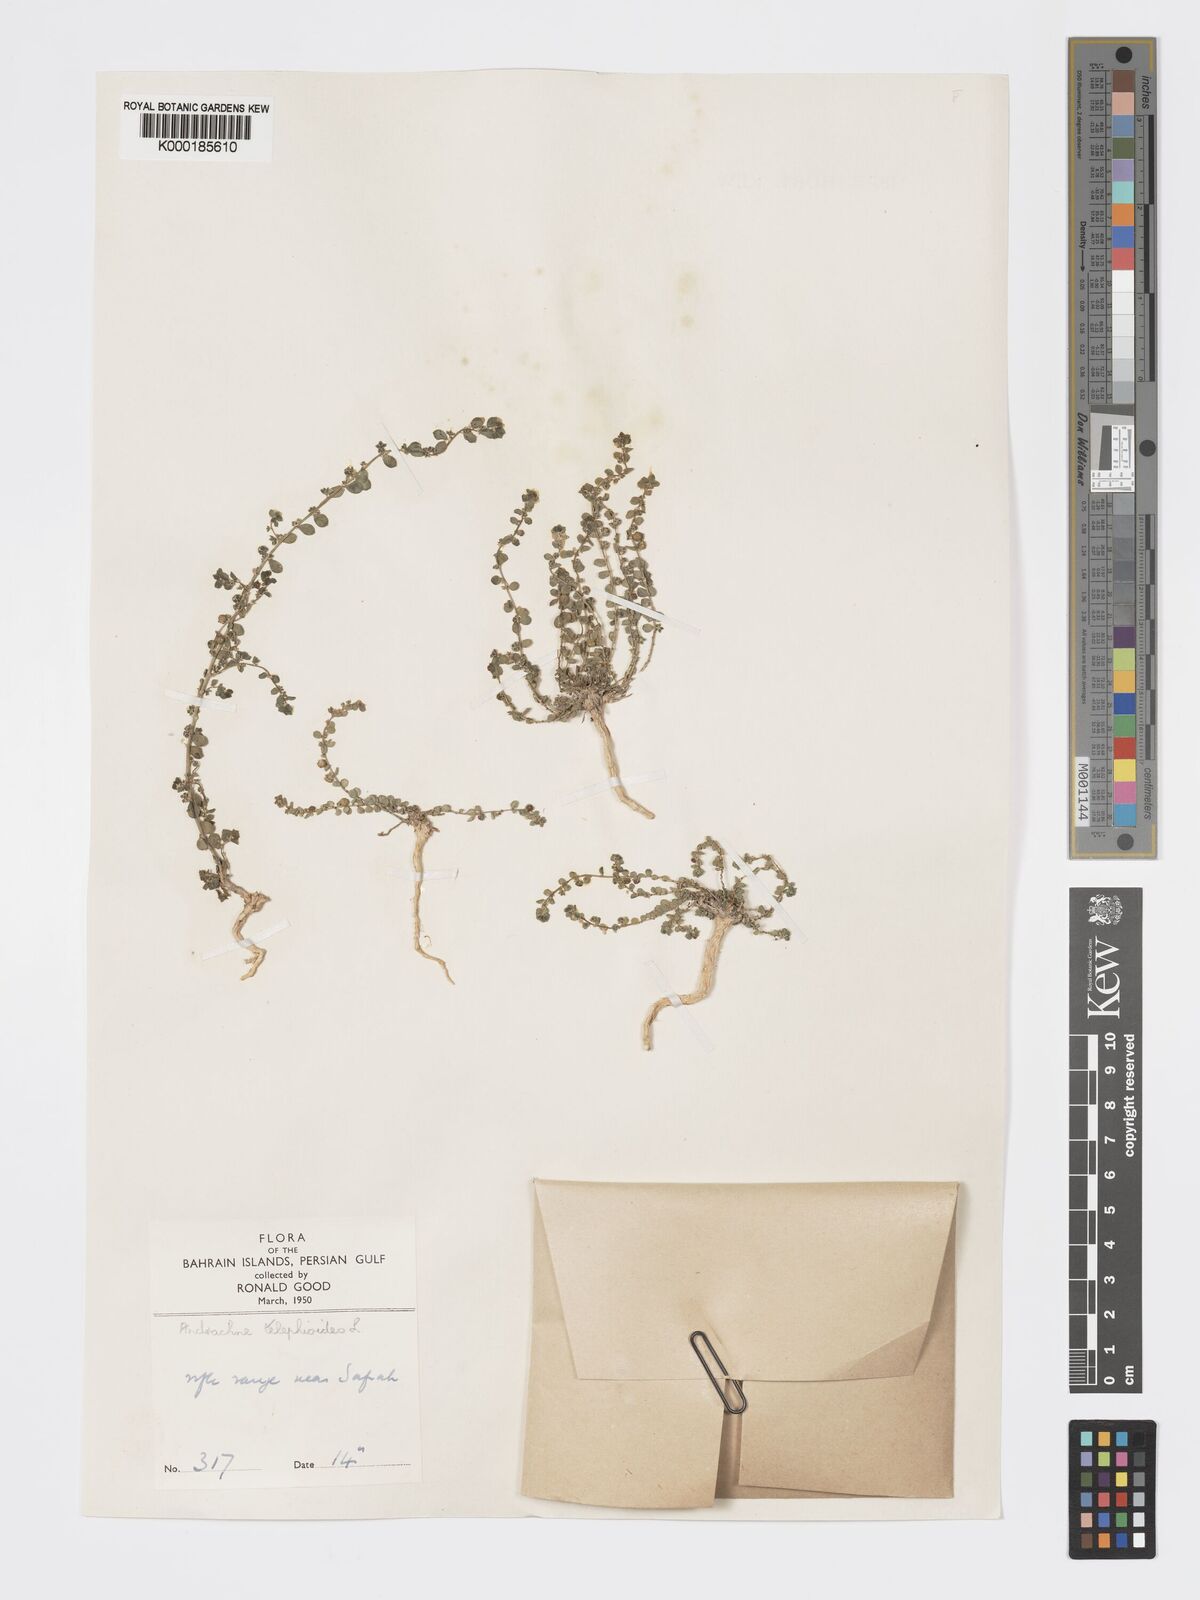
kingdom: Plantae
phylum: Tracheophyta
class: Magnoliopsida
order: Malpighiales
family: Phyllanthaceae
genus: Andrachne
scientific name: Andrachne telephioides
